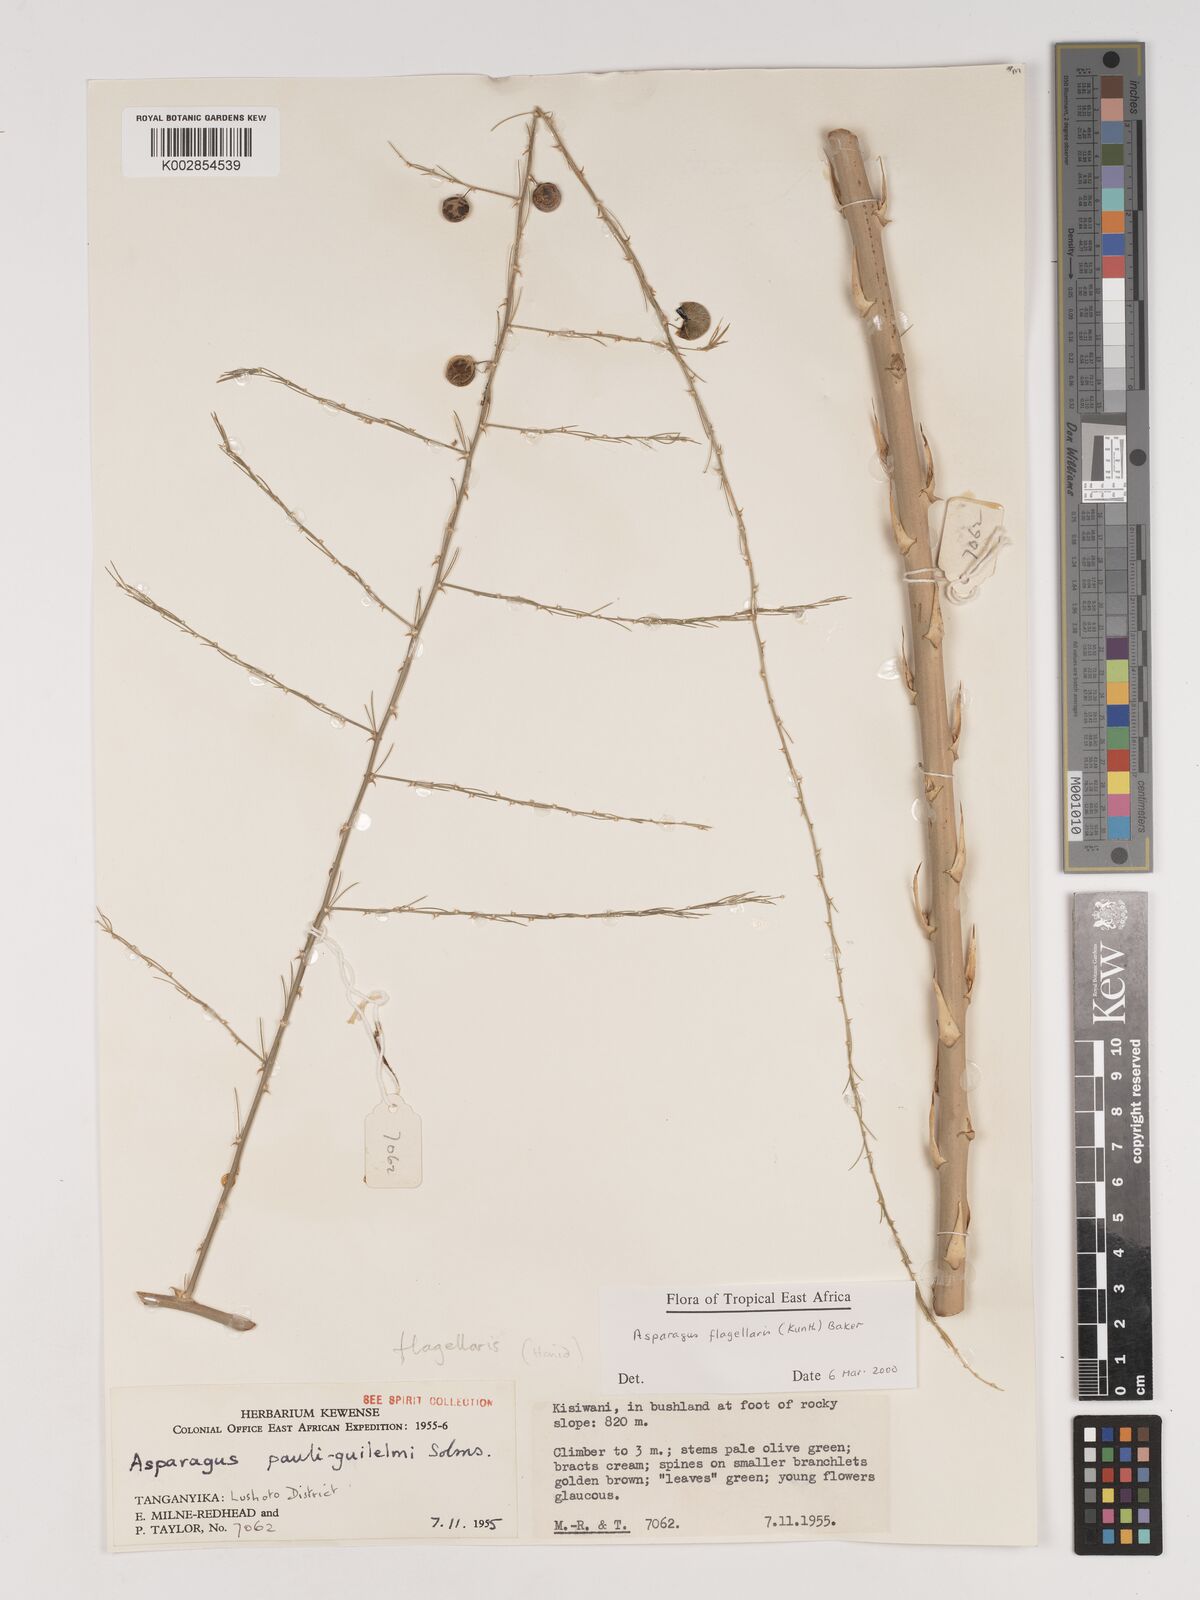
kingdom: Plantae
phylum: Tracheophyta
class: Liliopsida
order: Asparagales
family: Asparagaceae
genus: Asparagus
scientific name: Asparagus flagellaris
